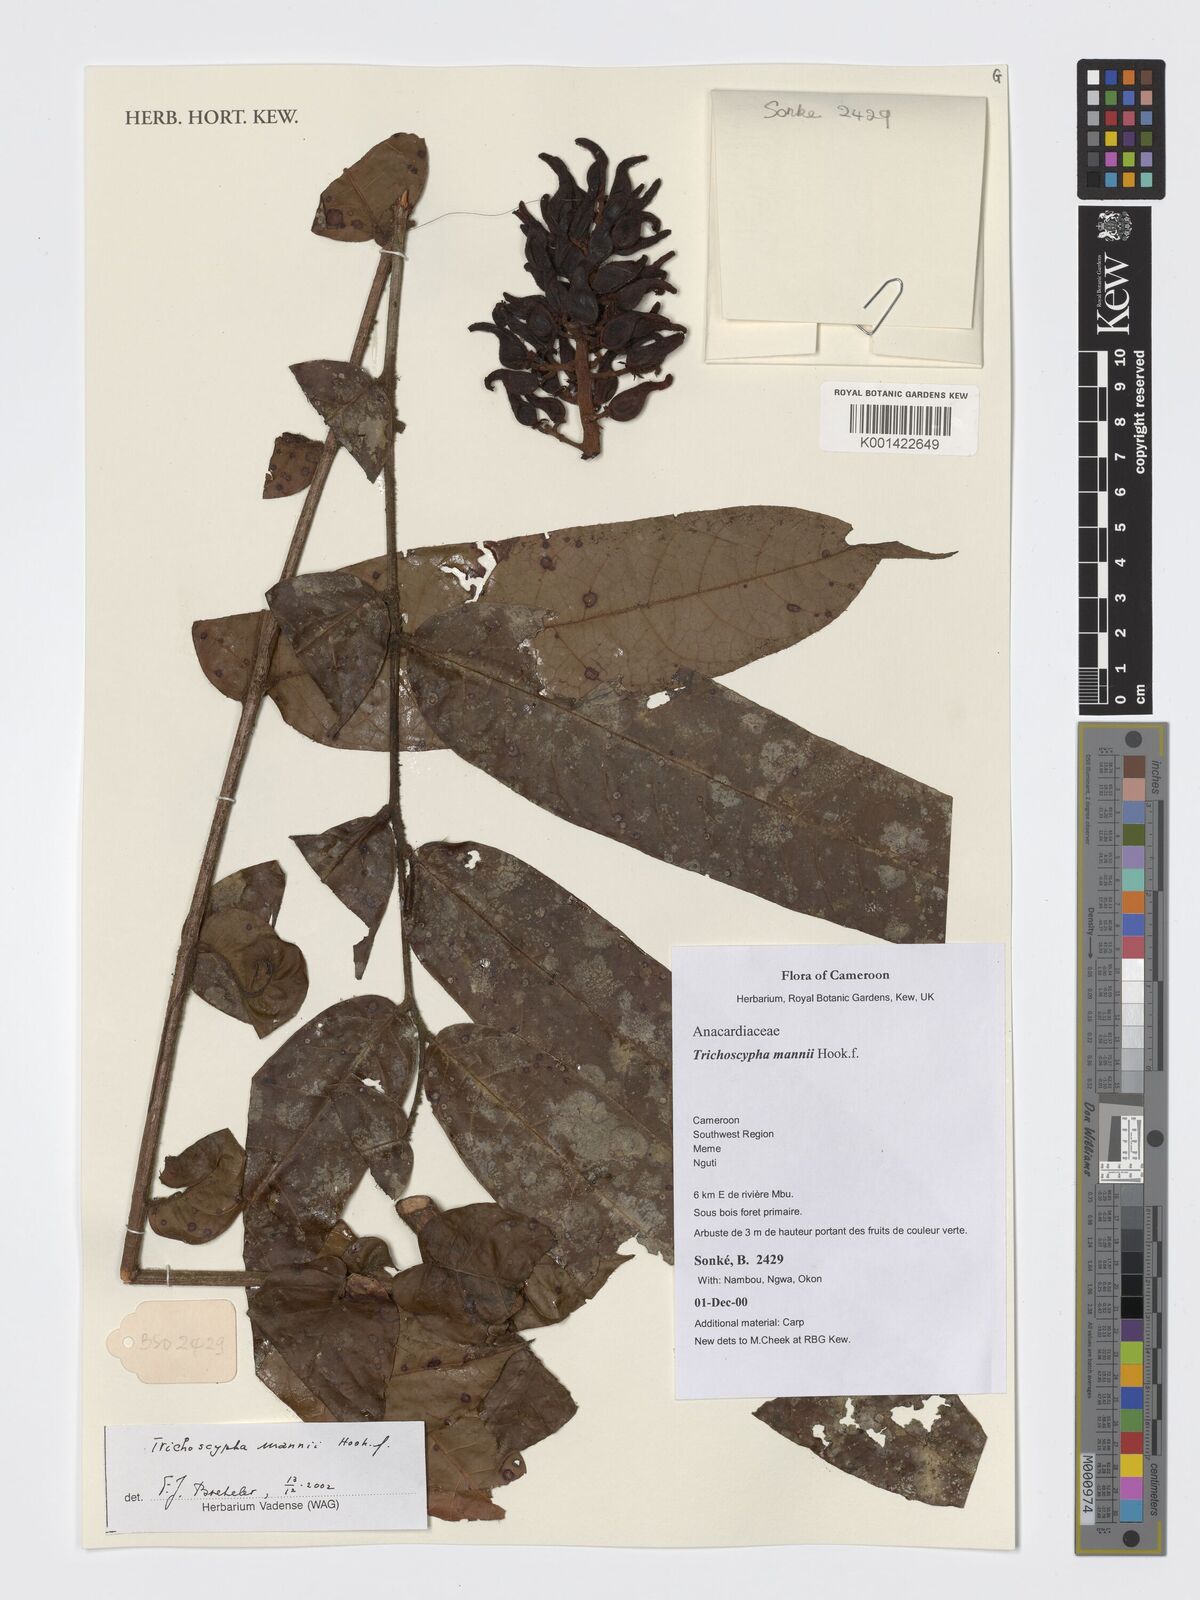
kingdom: Plantae
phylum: Tracheophyta
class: Magnoliopsida
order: Sapindales
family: Anacardiaceae
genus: Trichoscypha
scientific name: Trichoscypha mannii
